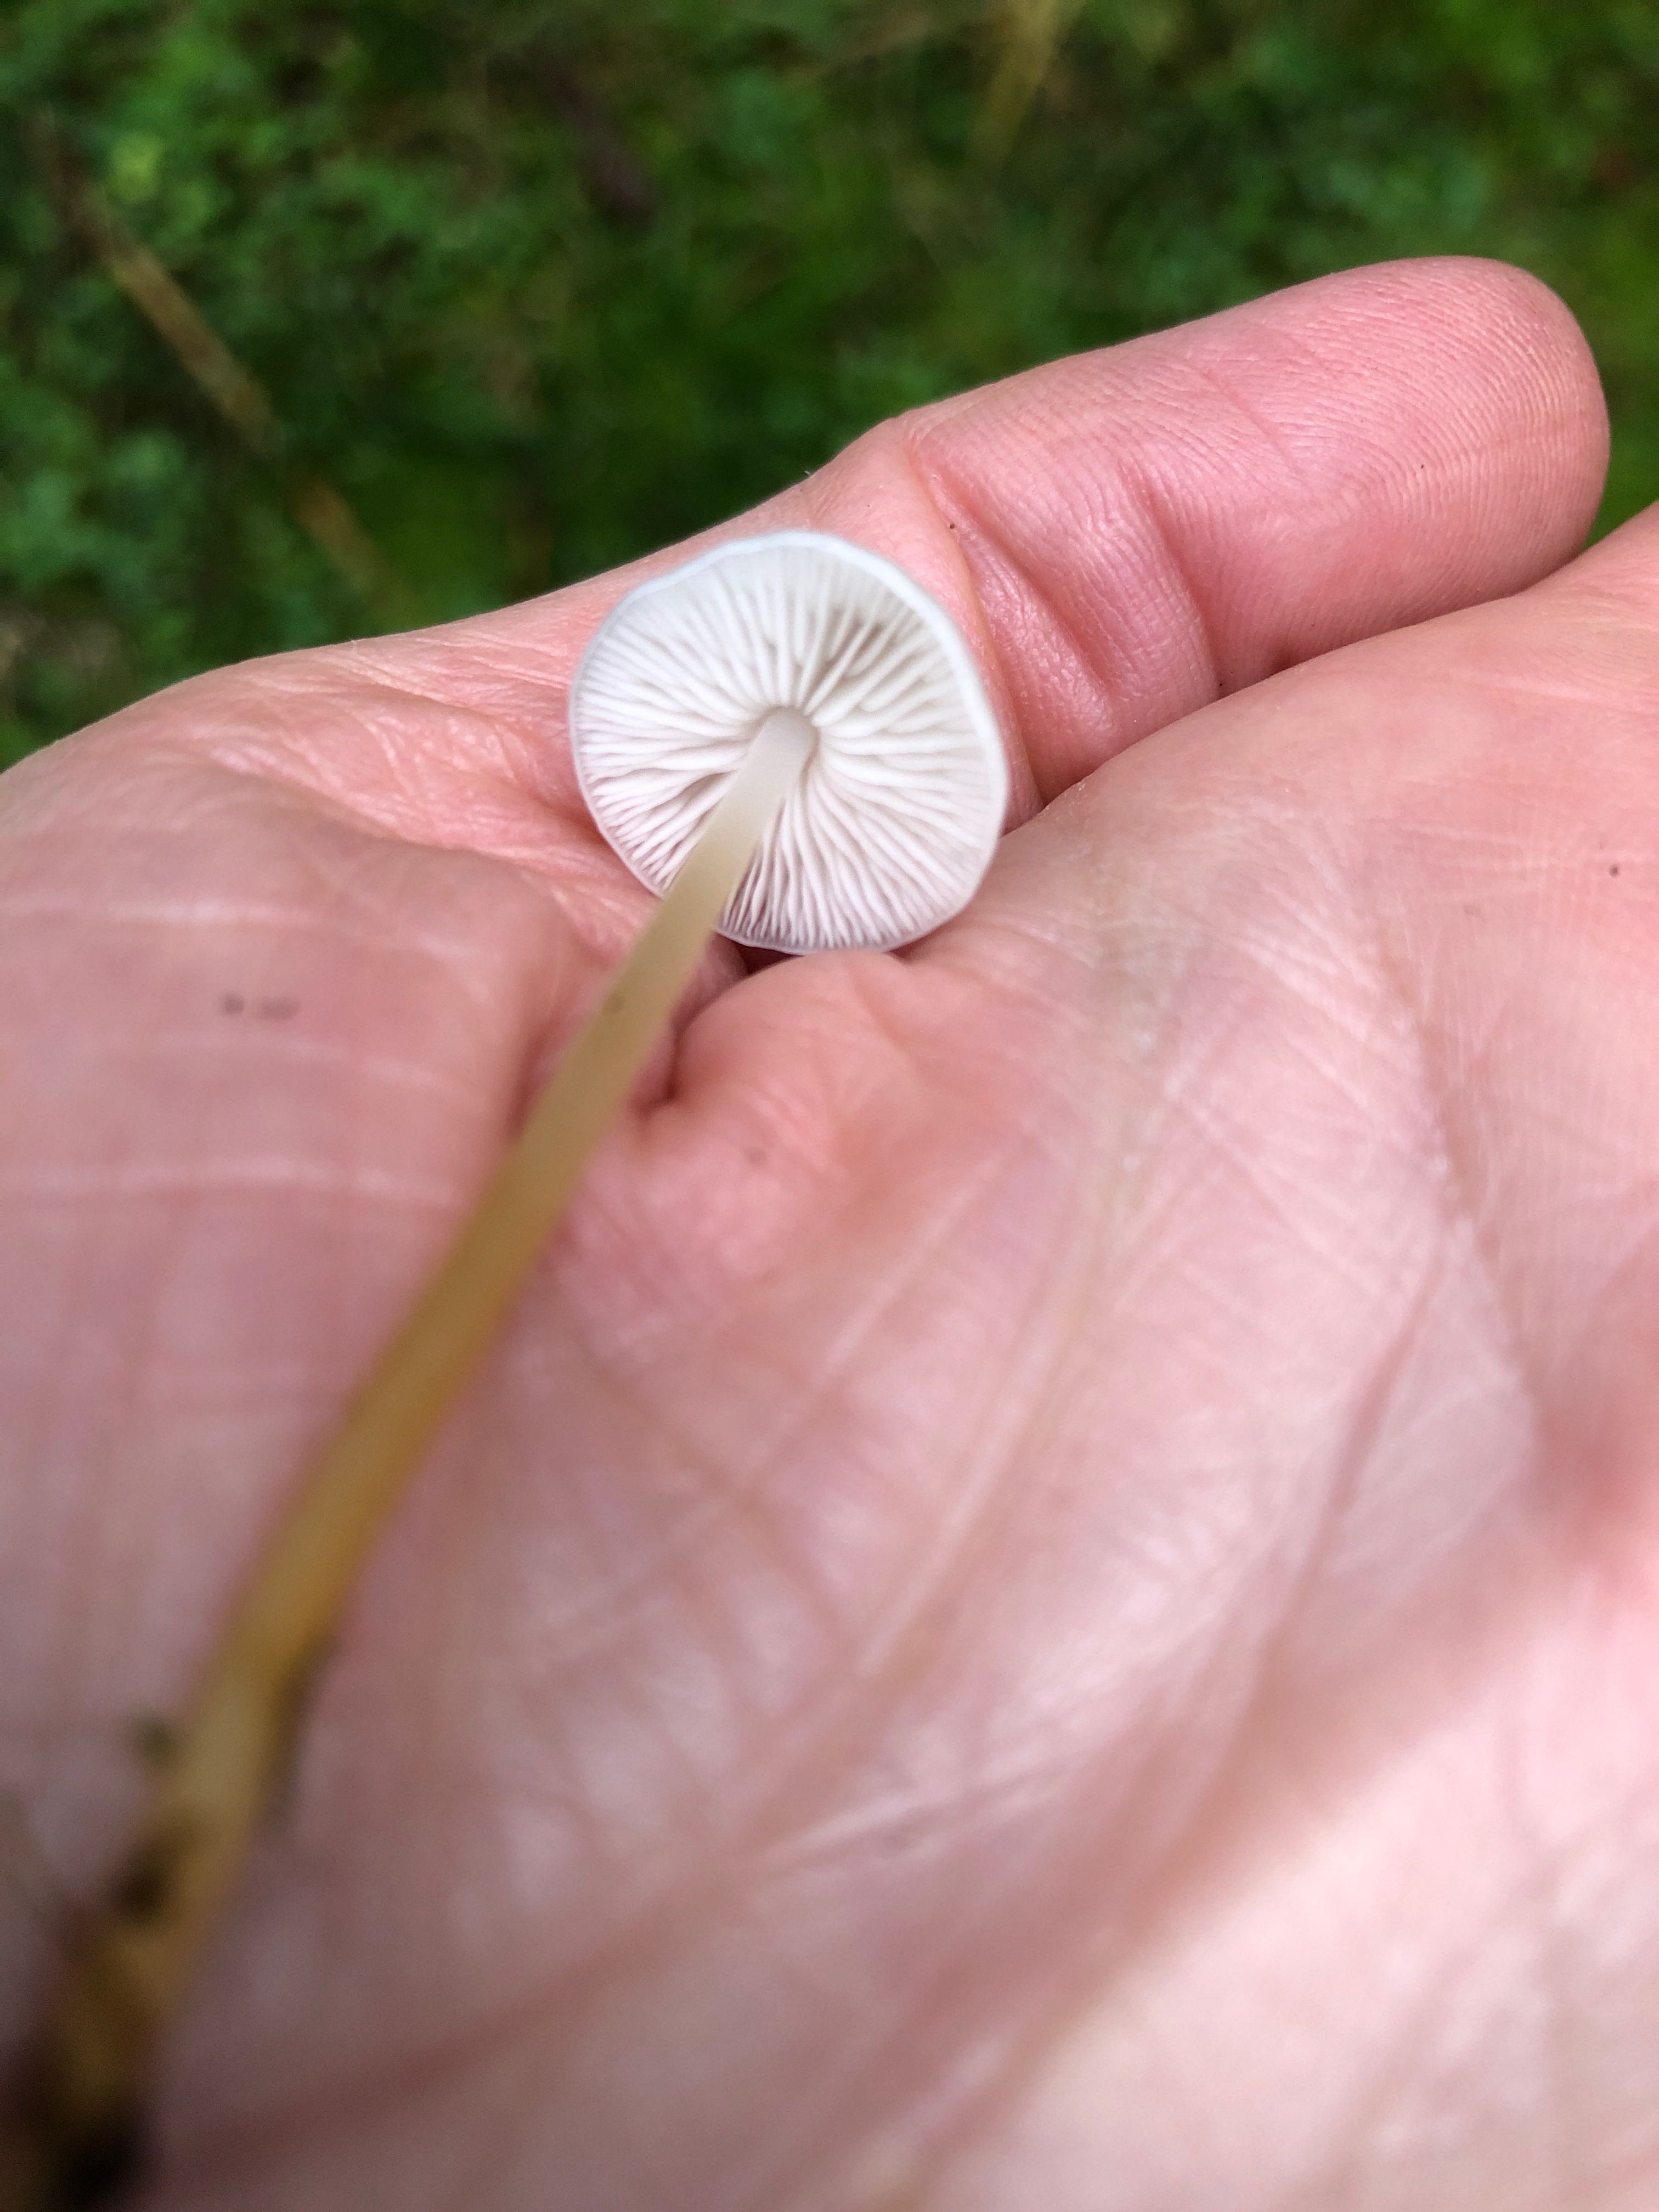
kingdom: Fungi
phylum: Basidiomycota
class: Agaricomycetes
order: Agaricales
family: Physalacriaceae
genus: Strobilurus
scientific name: Strobilurus esculentus
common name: gran-koglehat
